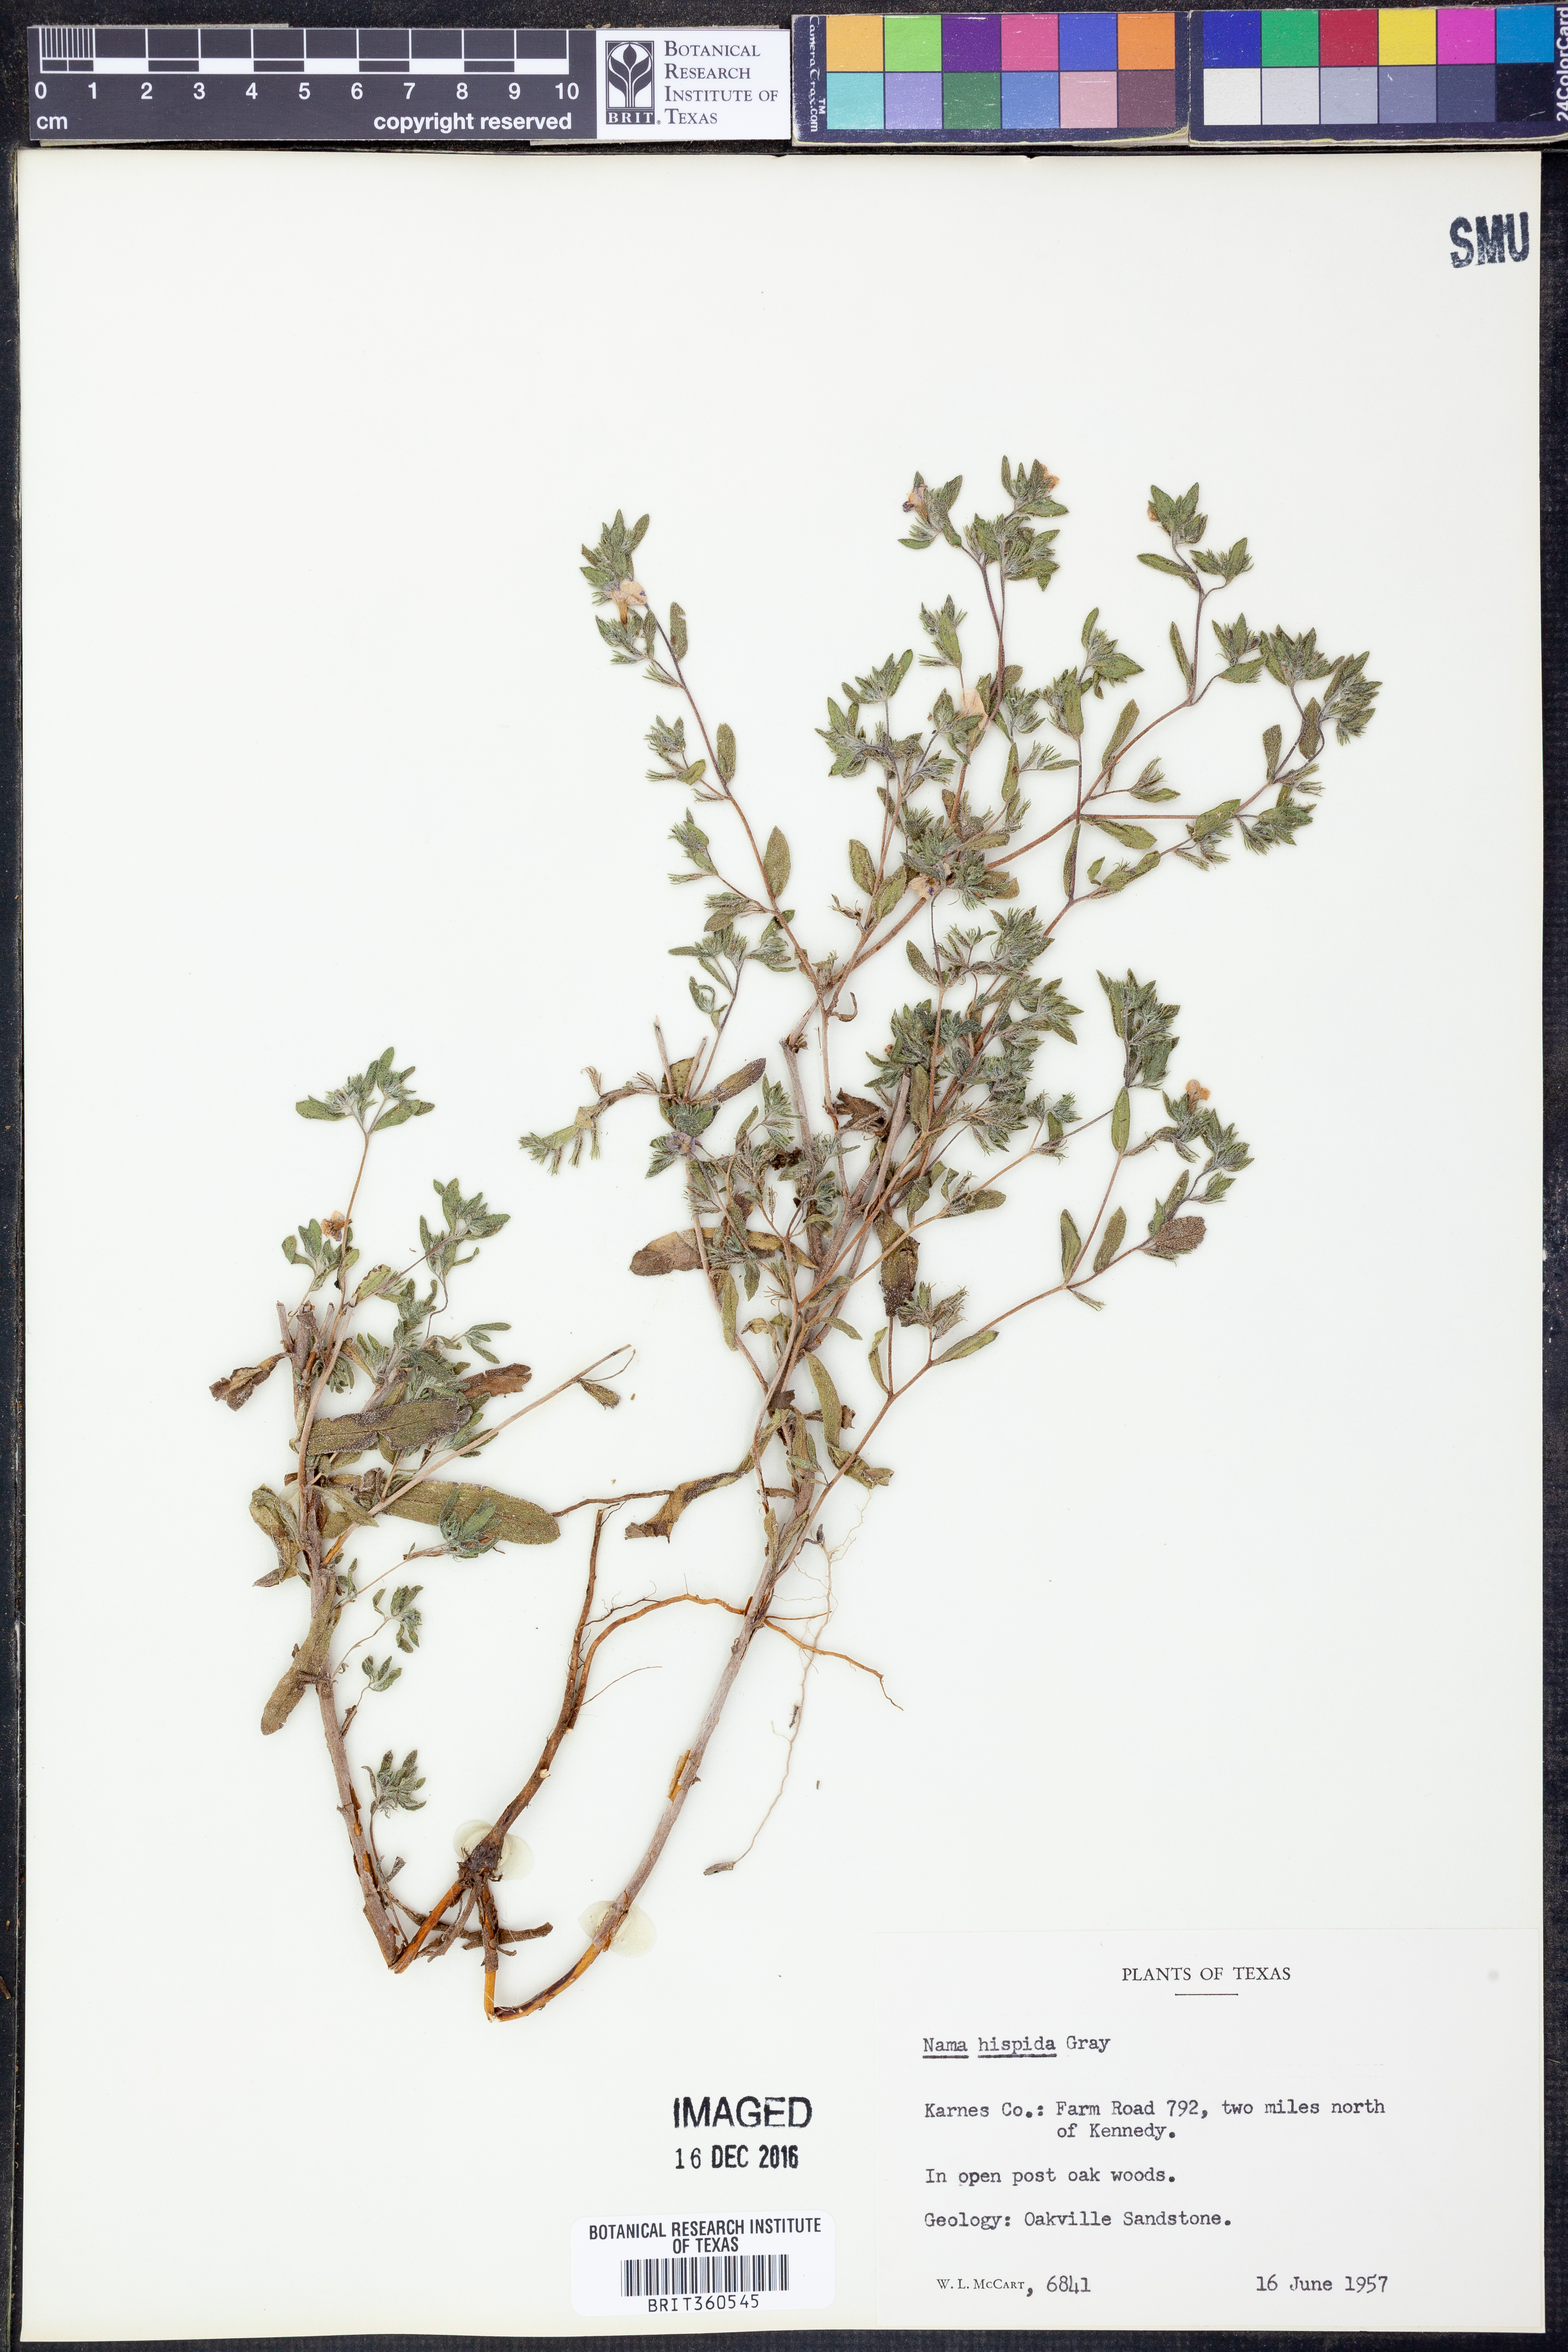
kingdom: Plantae
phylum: Tracheophyta
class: Magnoliopsida
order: Boraginales
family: Namaceae
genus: Nama
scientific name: Nama hispida
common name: Bristly nama
